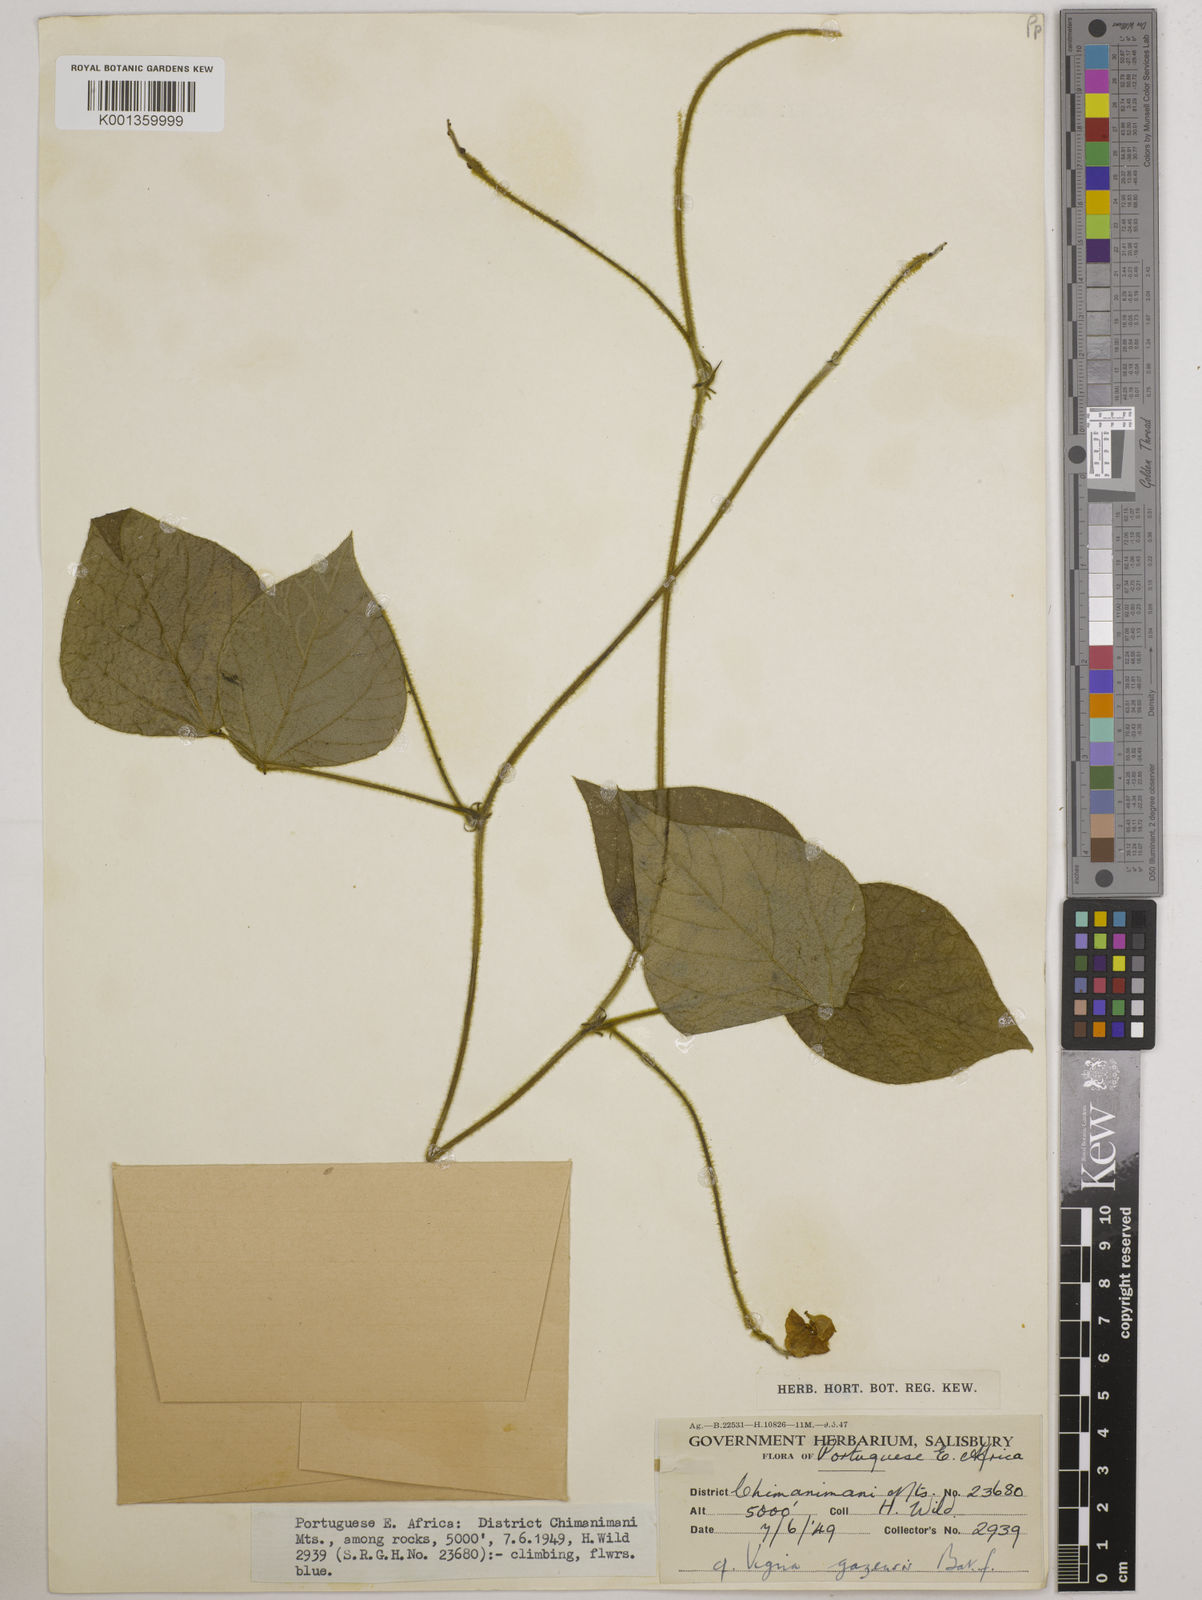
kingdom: Plantae
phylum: Tracheophyta
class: Magnoliopsida
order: Fabales
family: Fabaceae
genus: Vigna
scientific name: Vigna gazensis
